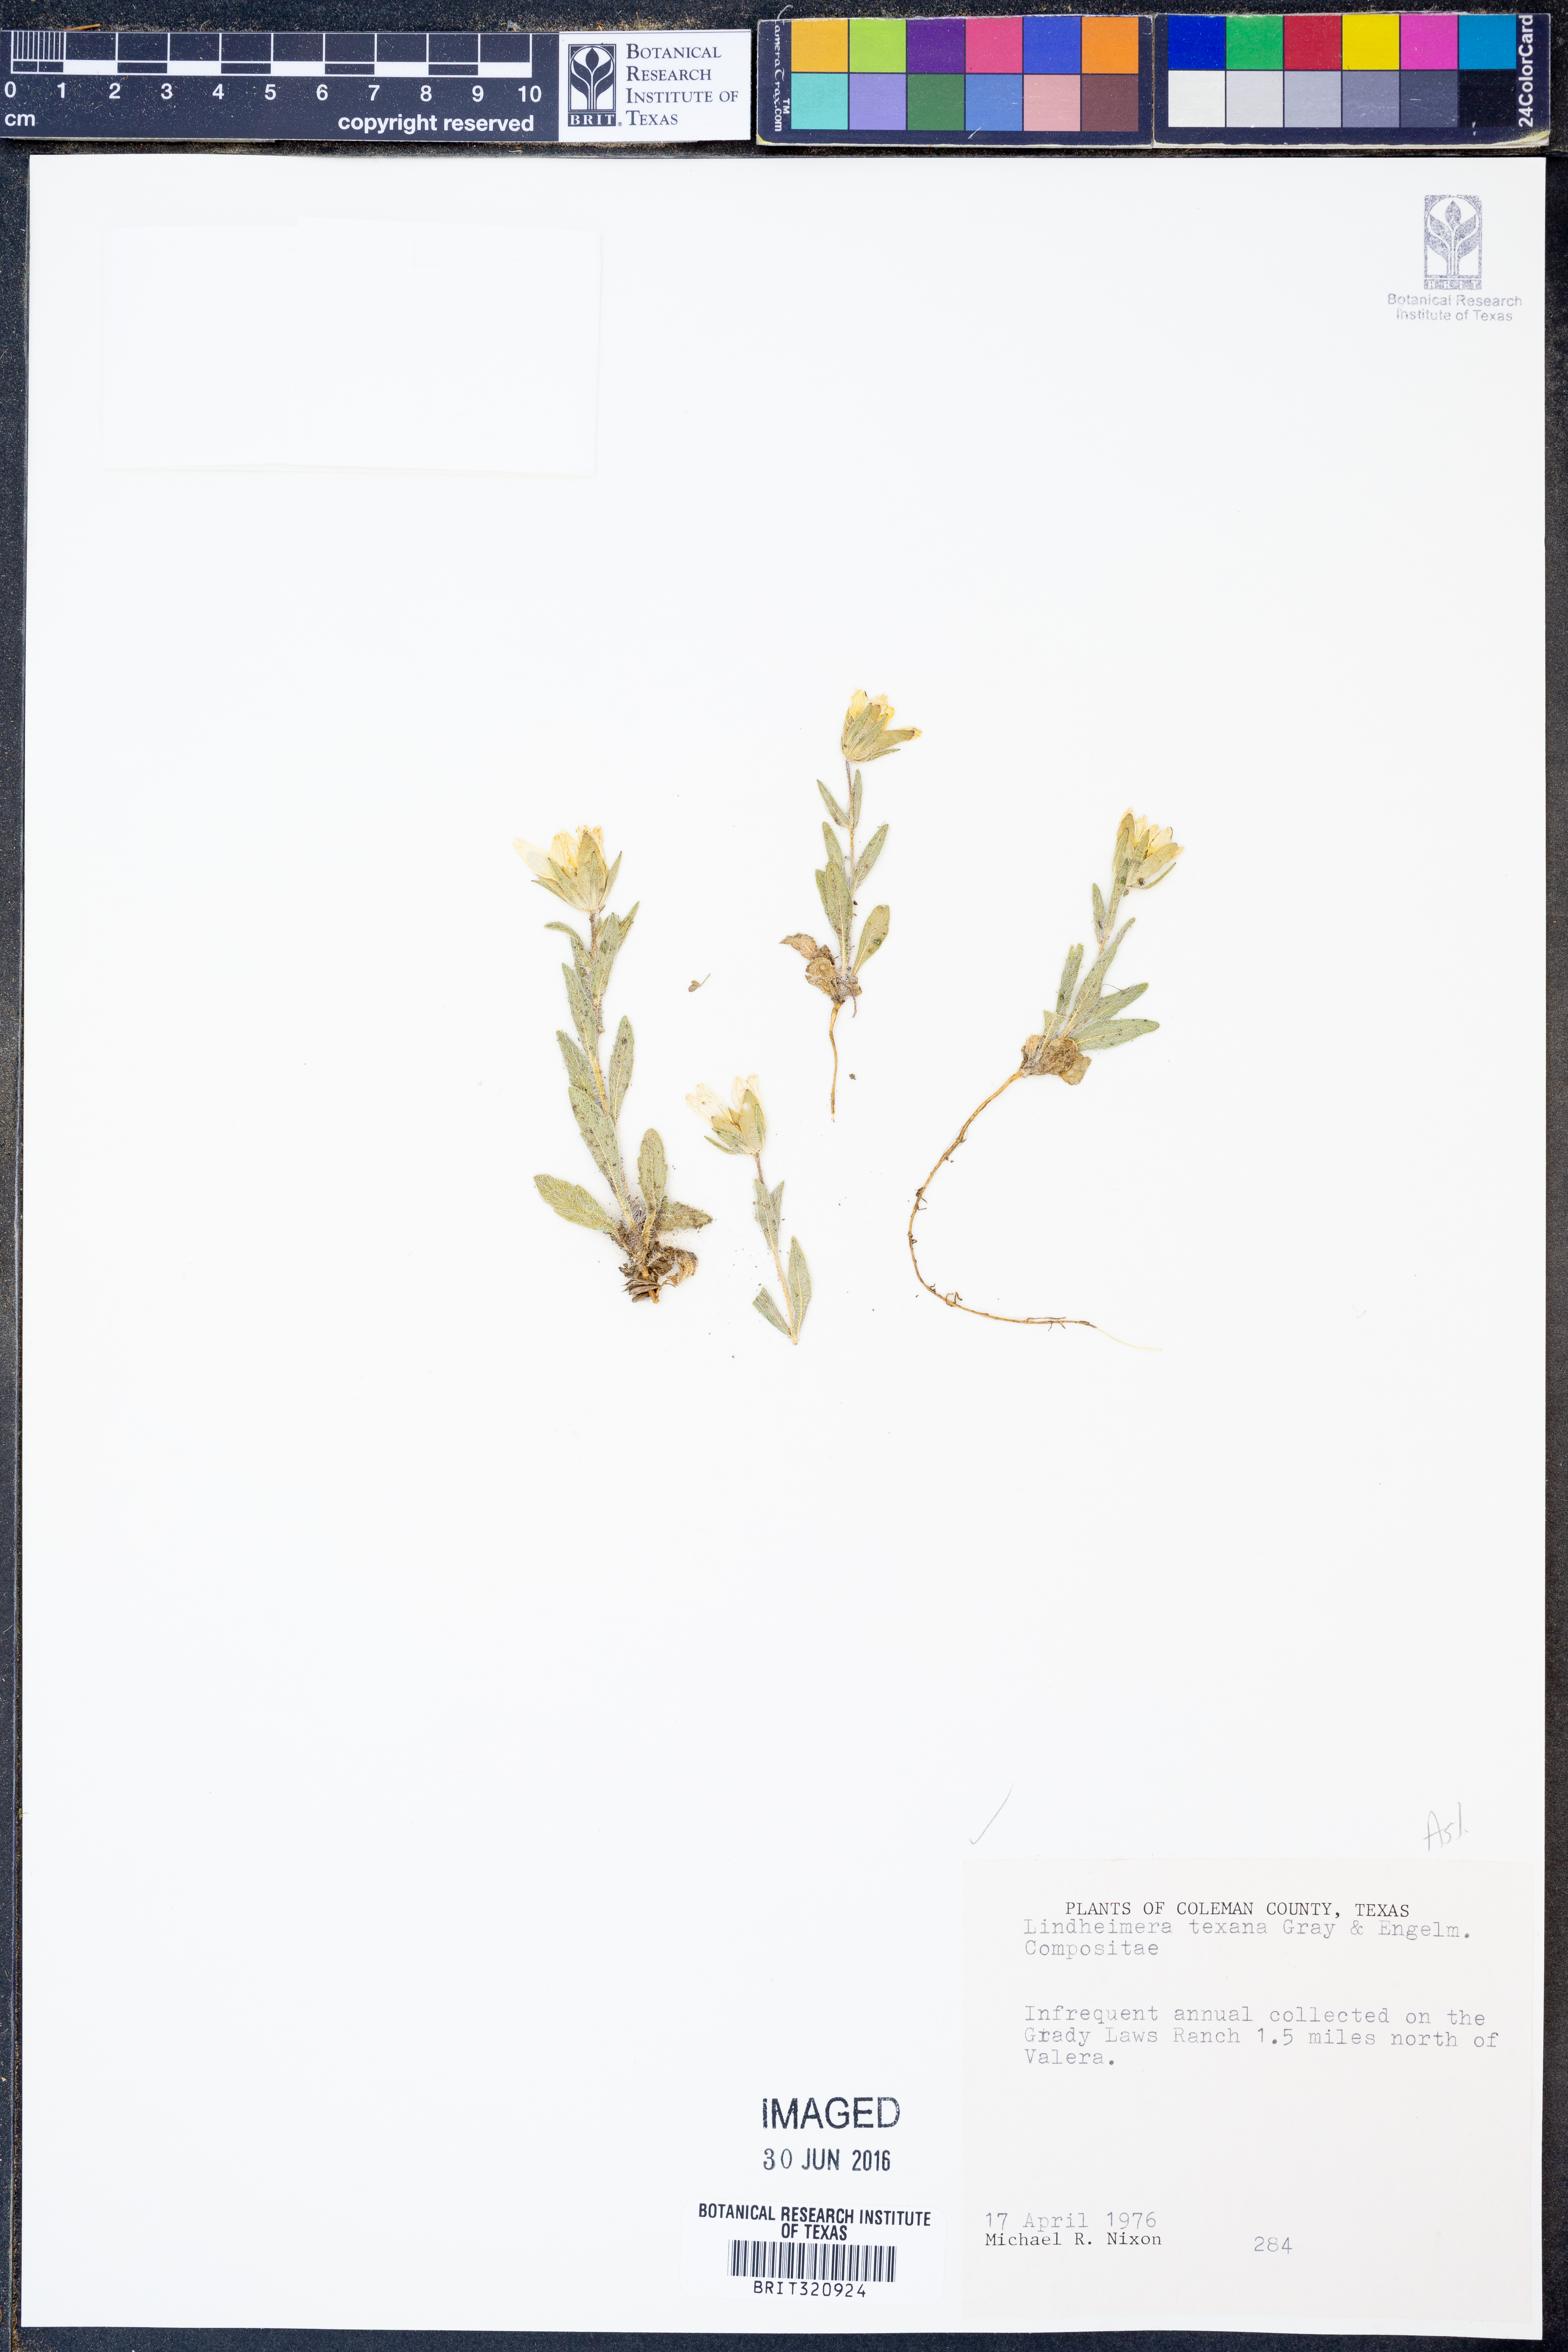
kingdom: Plantae
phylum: Tracheophyta
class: Magnoliopsida
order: Asterales
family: Asteraceae
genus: Lindheimera
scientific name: Lindheimera texana
